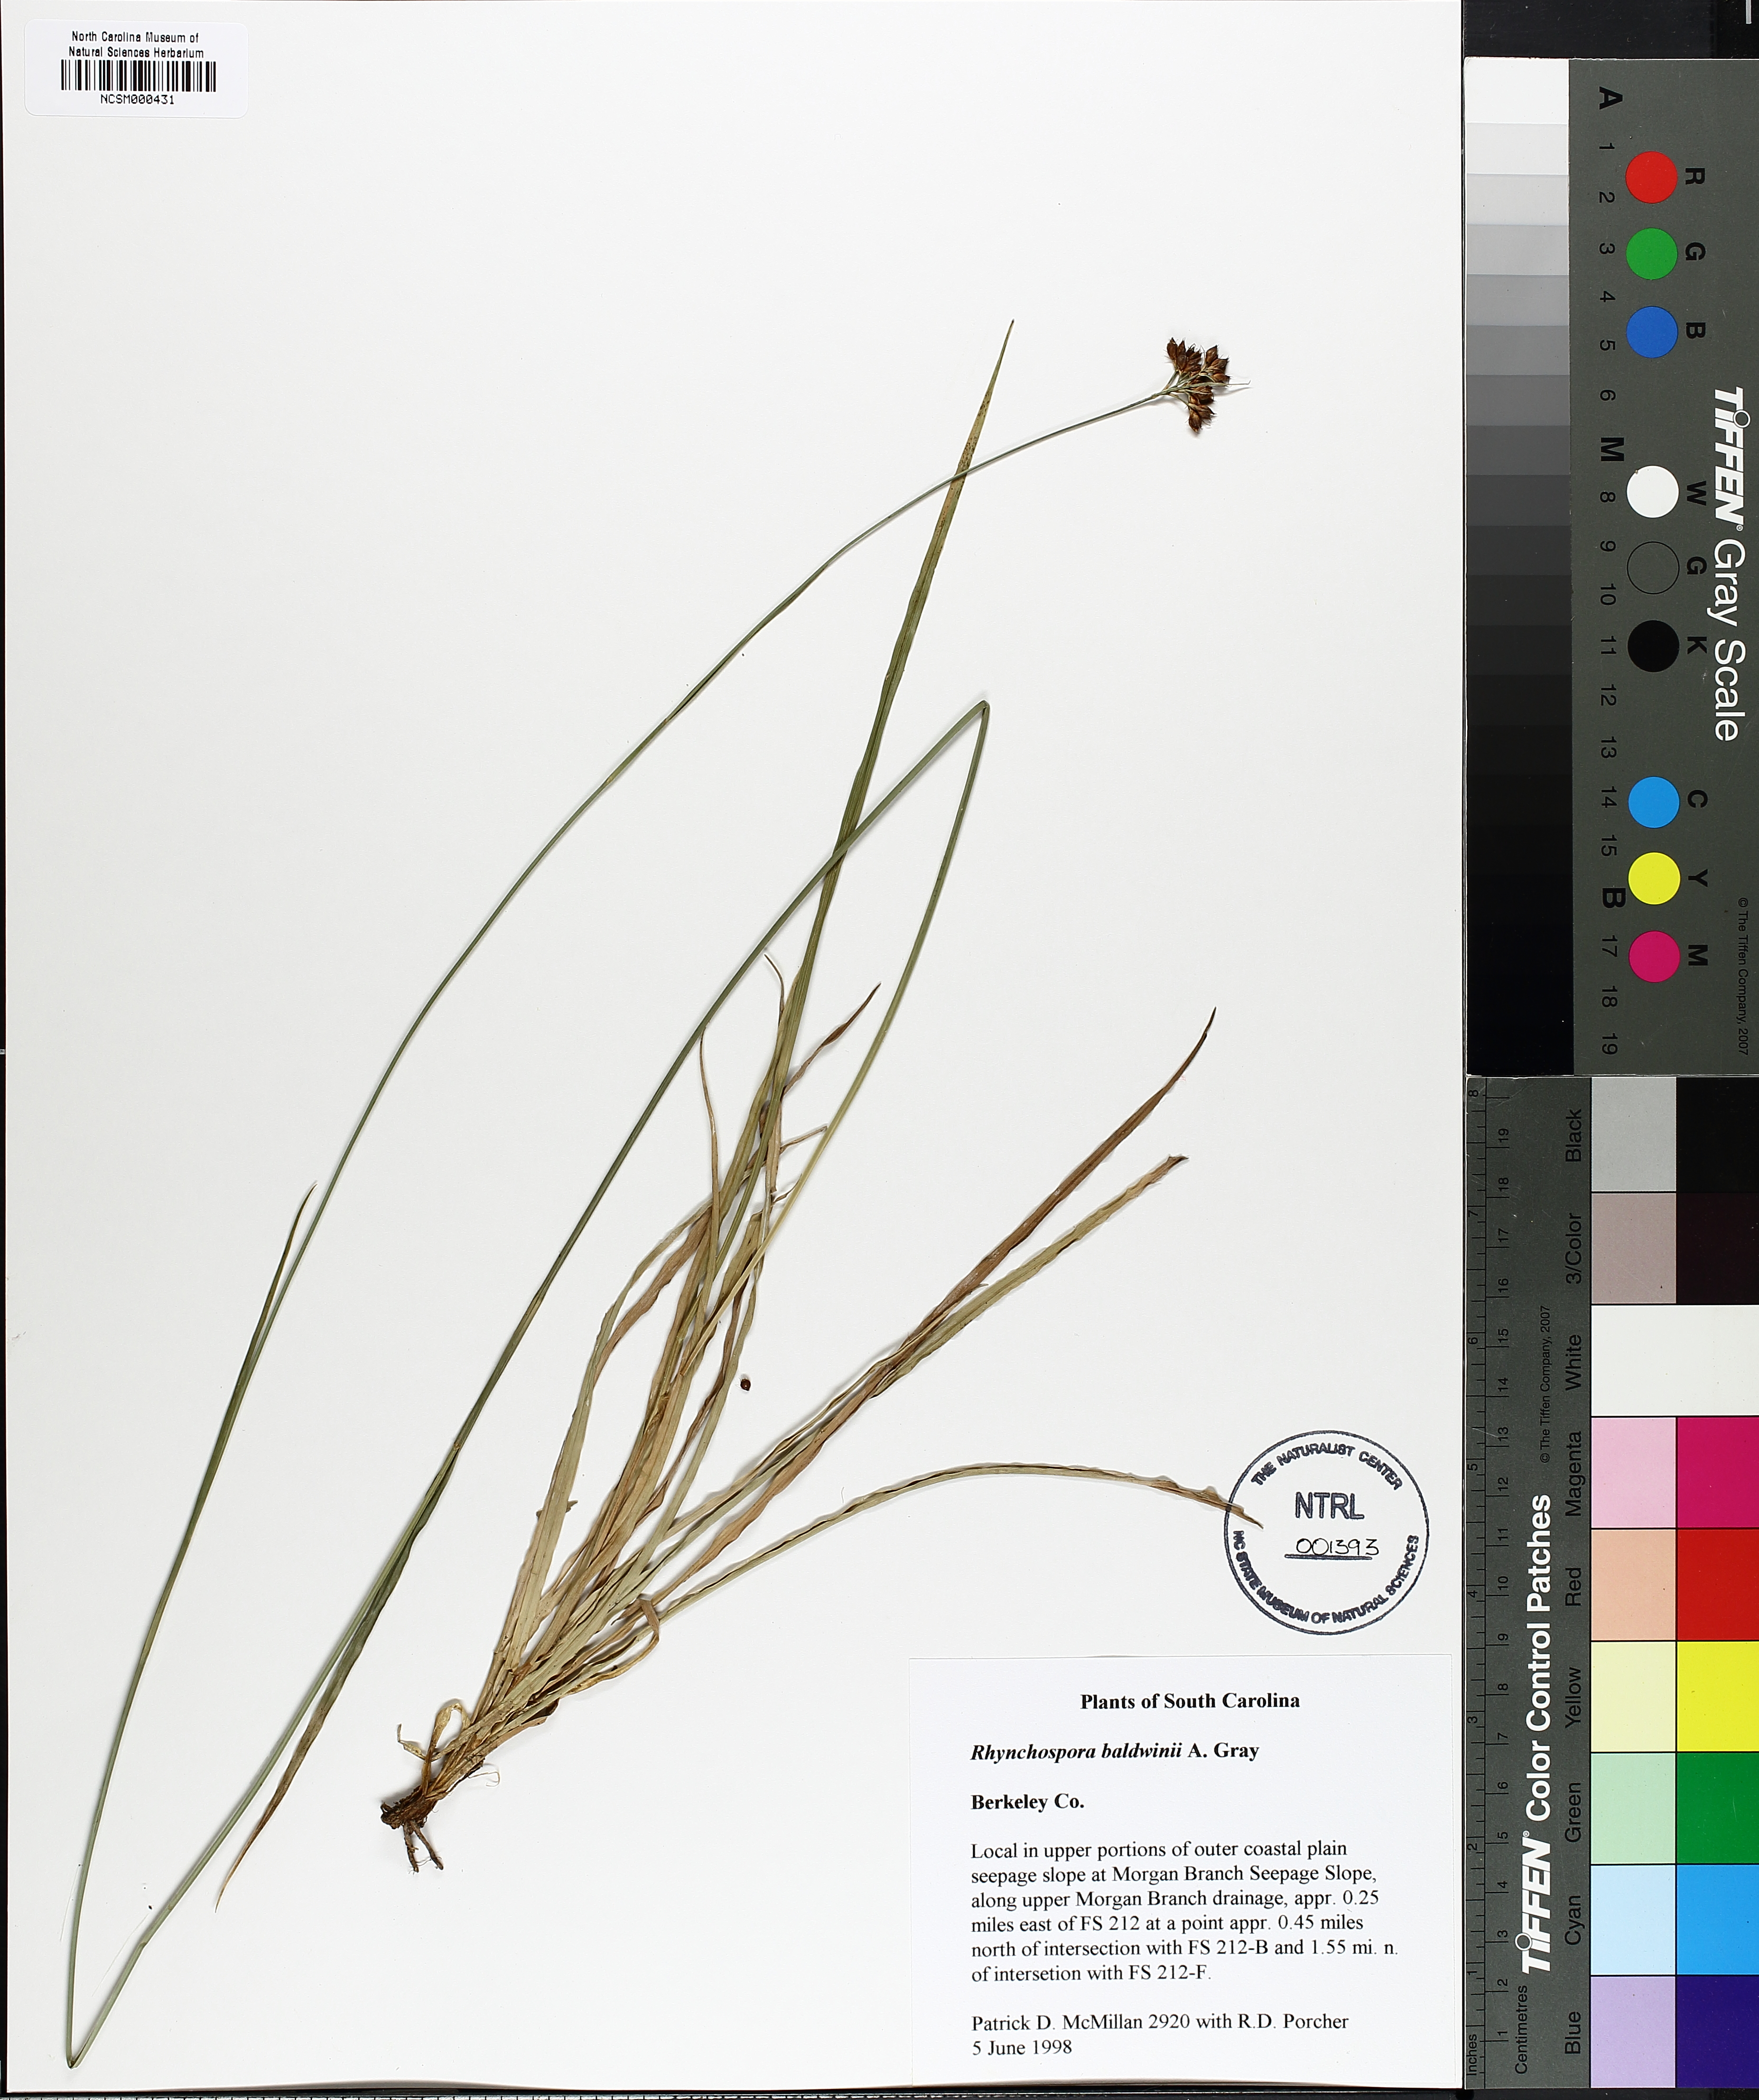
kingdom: Plantae
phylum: Tracheophyta
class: Liliopsida
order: Poales
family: Cyperaceae
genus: Rhynchospora
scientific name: Rhynchospora baldwinii
